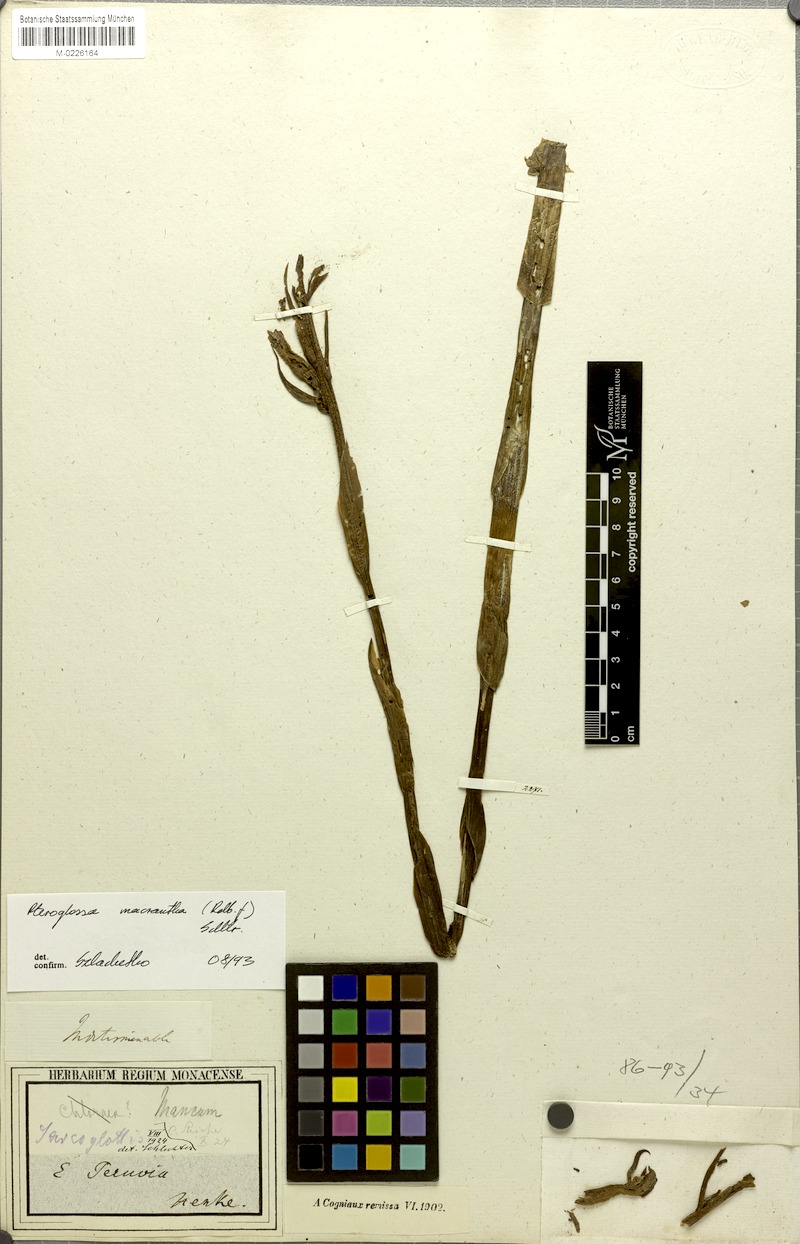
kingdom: Plantae
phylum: Tracheophyta
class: Liliopsida
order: Asparagales
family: Orchidaceae
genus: Pteroglossa
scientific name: Pteroglossa macrantha
